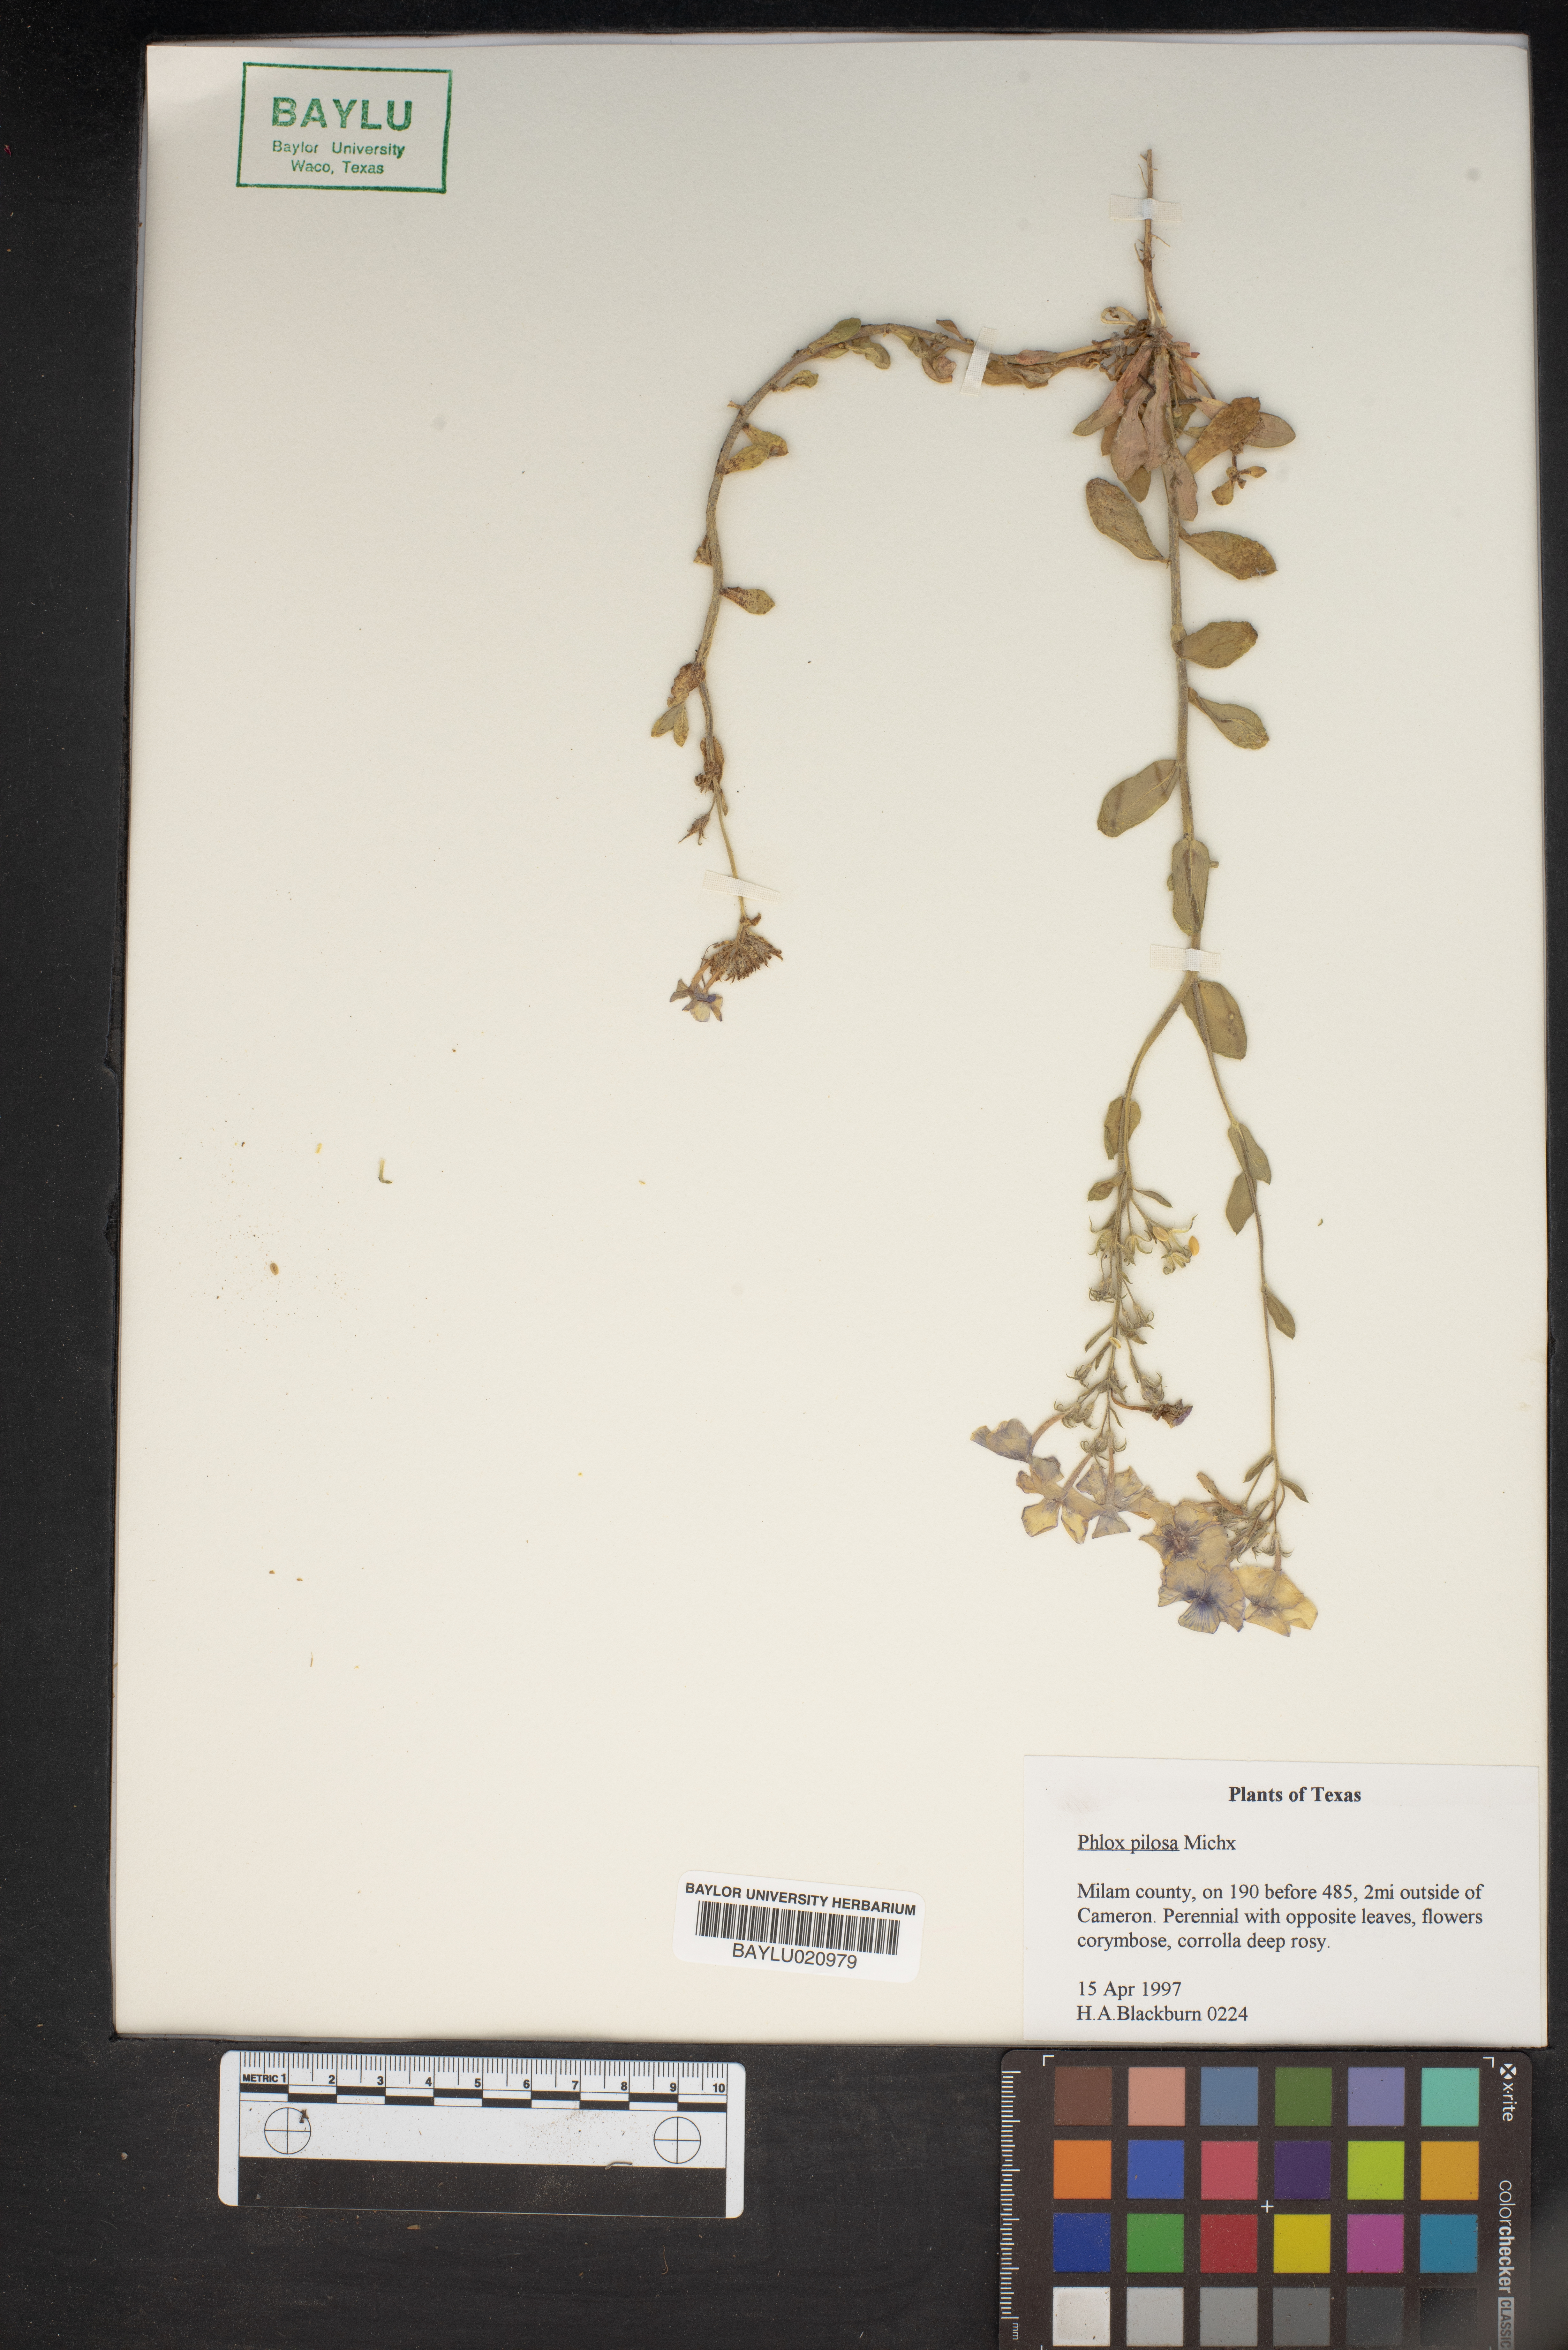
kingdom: Plantae
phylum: Tracheophyta
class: Magnoliopsida
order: Ericales
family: Polemoniaceae
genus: Phlox
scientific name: Phlox pilosa
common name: Prairie phlox
